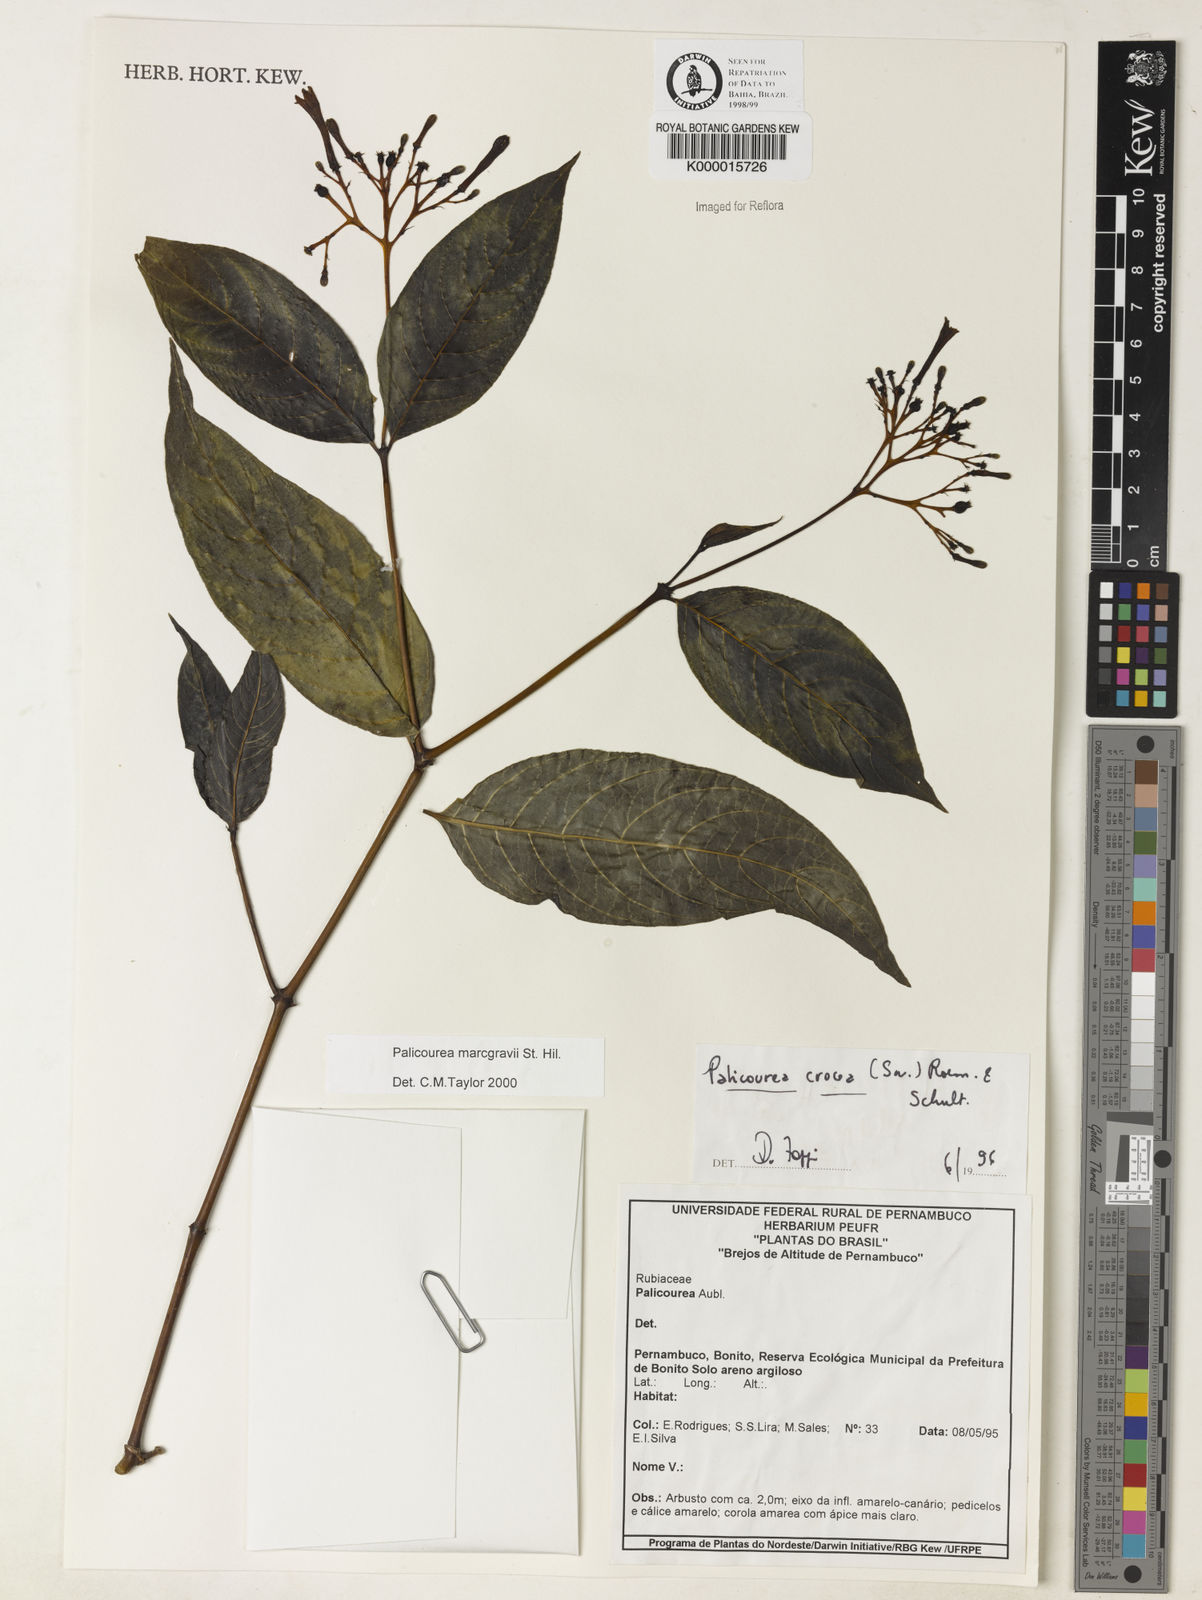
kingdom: Plantae
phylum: Tracheophyta
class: Magnoliopsida
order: Gentianales
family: Rubiaceae
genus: Palicourea
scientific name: Palicourea marcgravii
